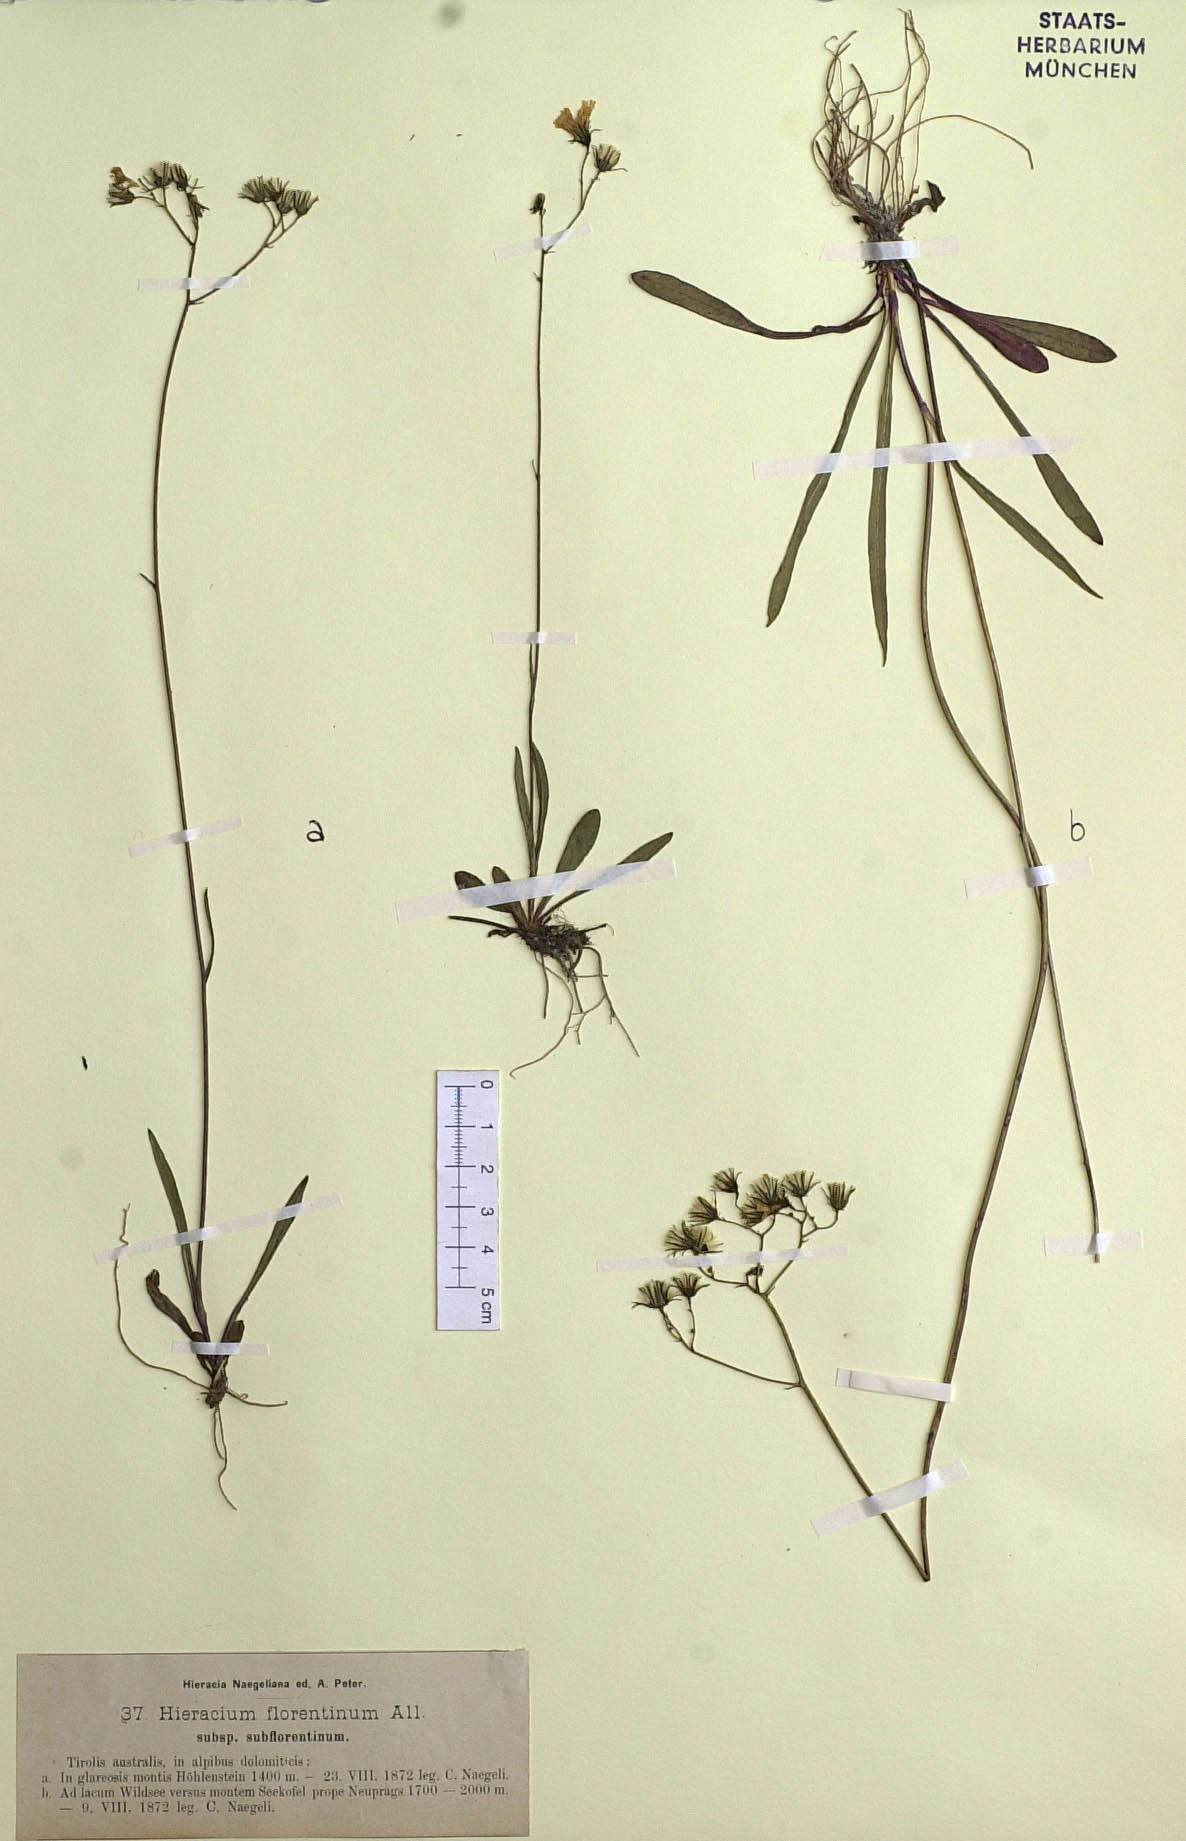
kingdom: Plantae
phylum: Tracheophyta
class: Magnoliopsida
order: Asterales
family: Asteraceae
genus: Pilosella
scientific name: Pilosella piloselloides
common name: Glaucous king-devil
